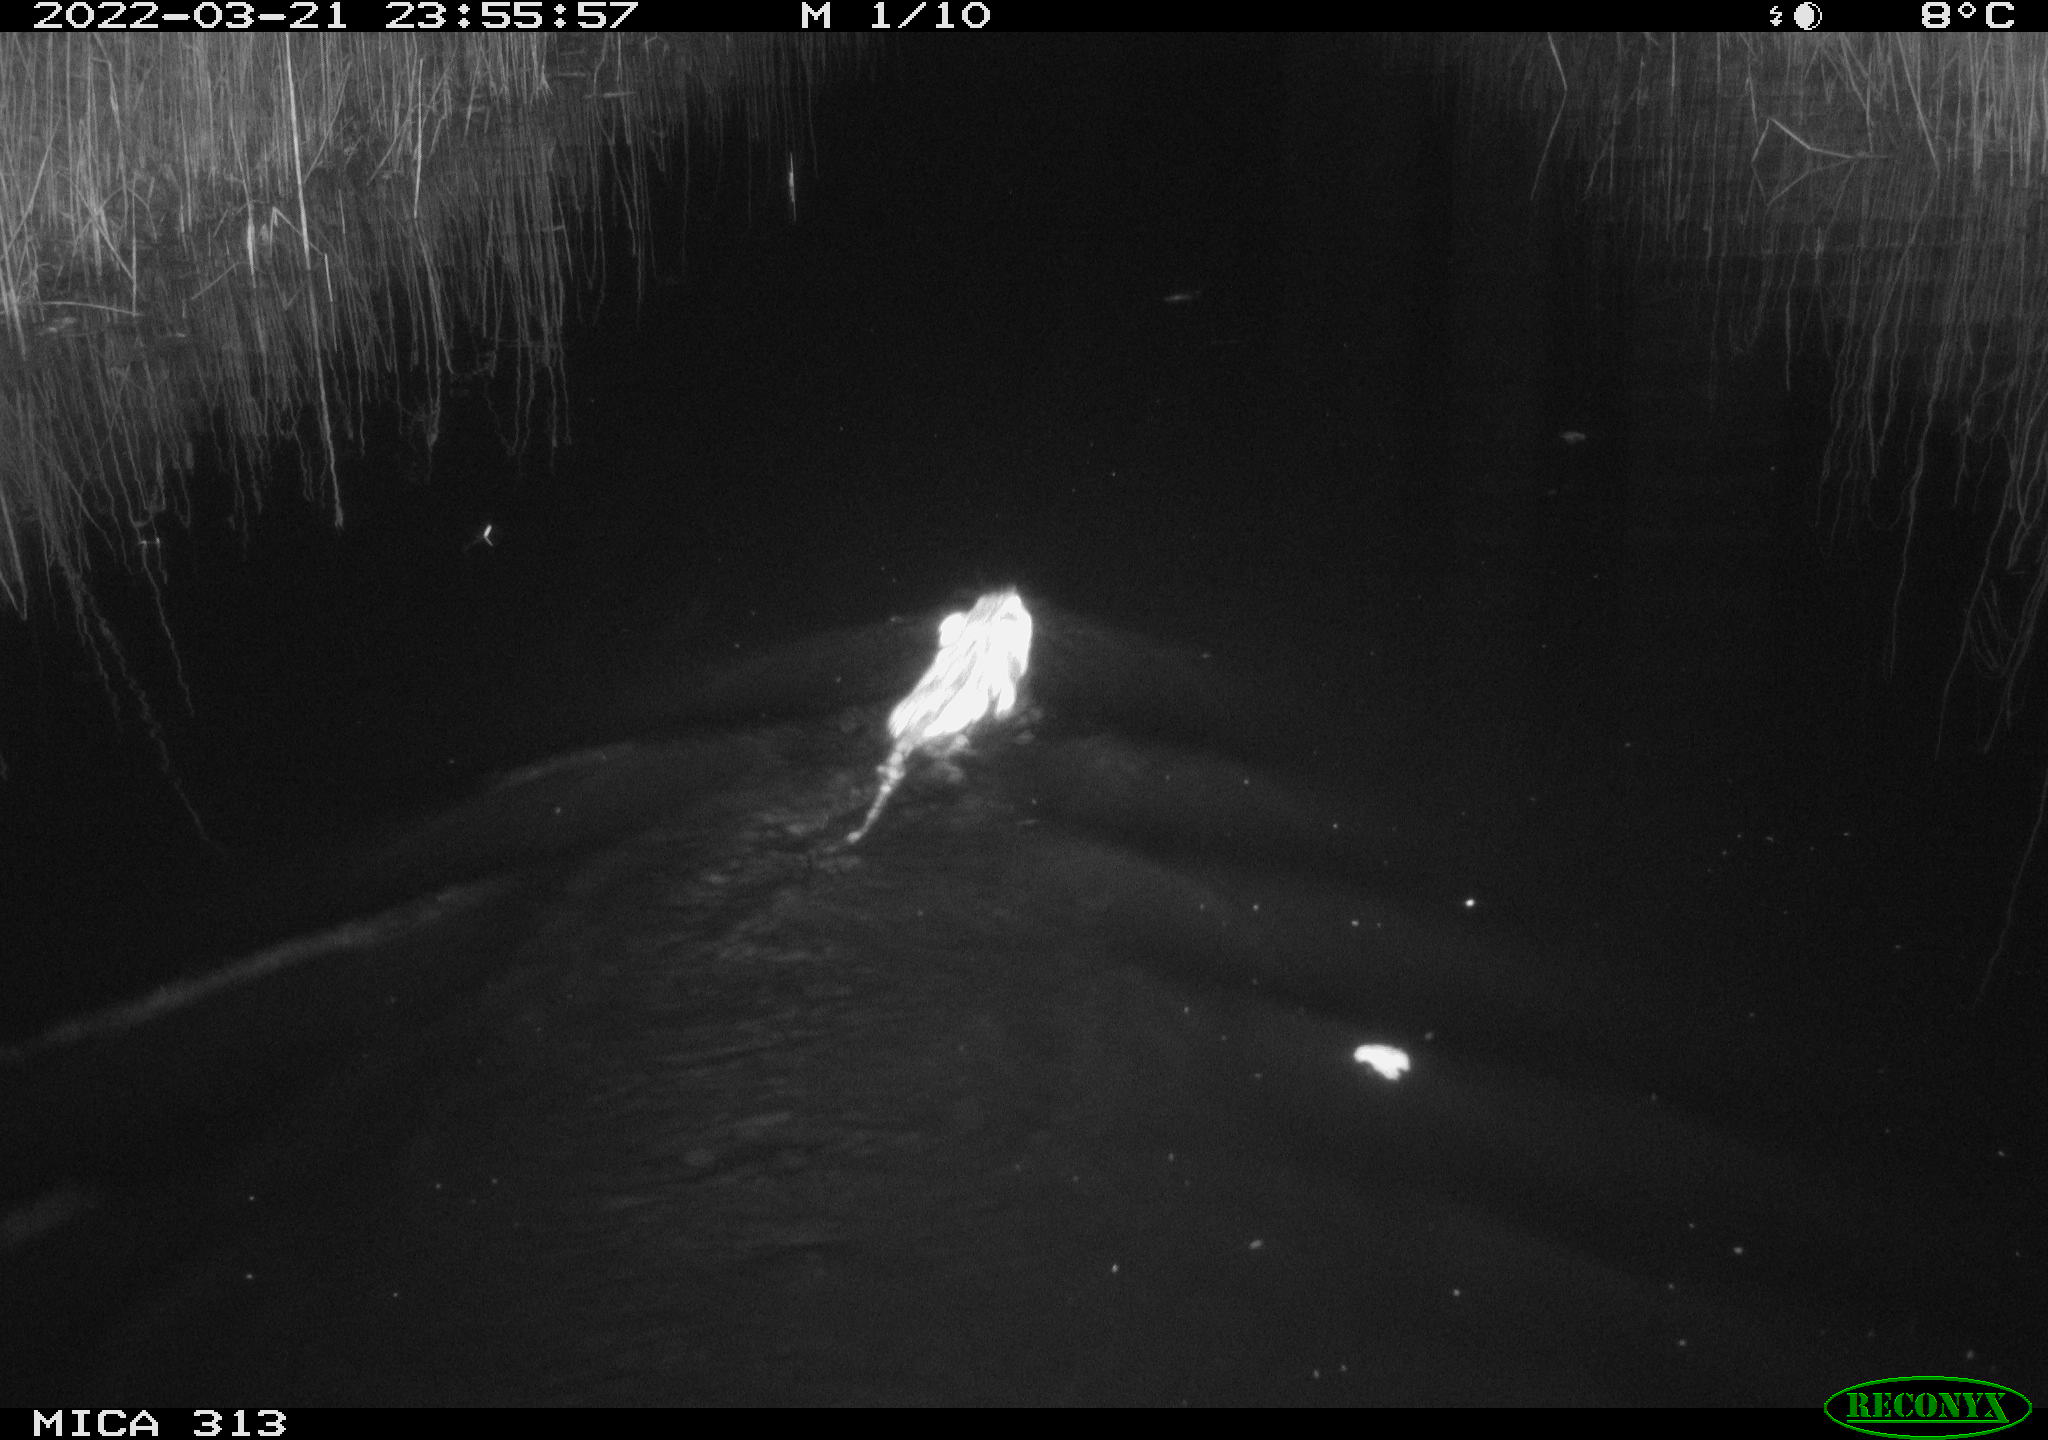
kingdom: Animalia
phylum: Chordata
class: Mammalia
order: Rodentia
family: Cricetidae
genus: Ondatra
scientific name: Ondatra zibethicus
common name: Muskrat
